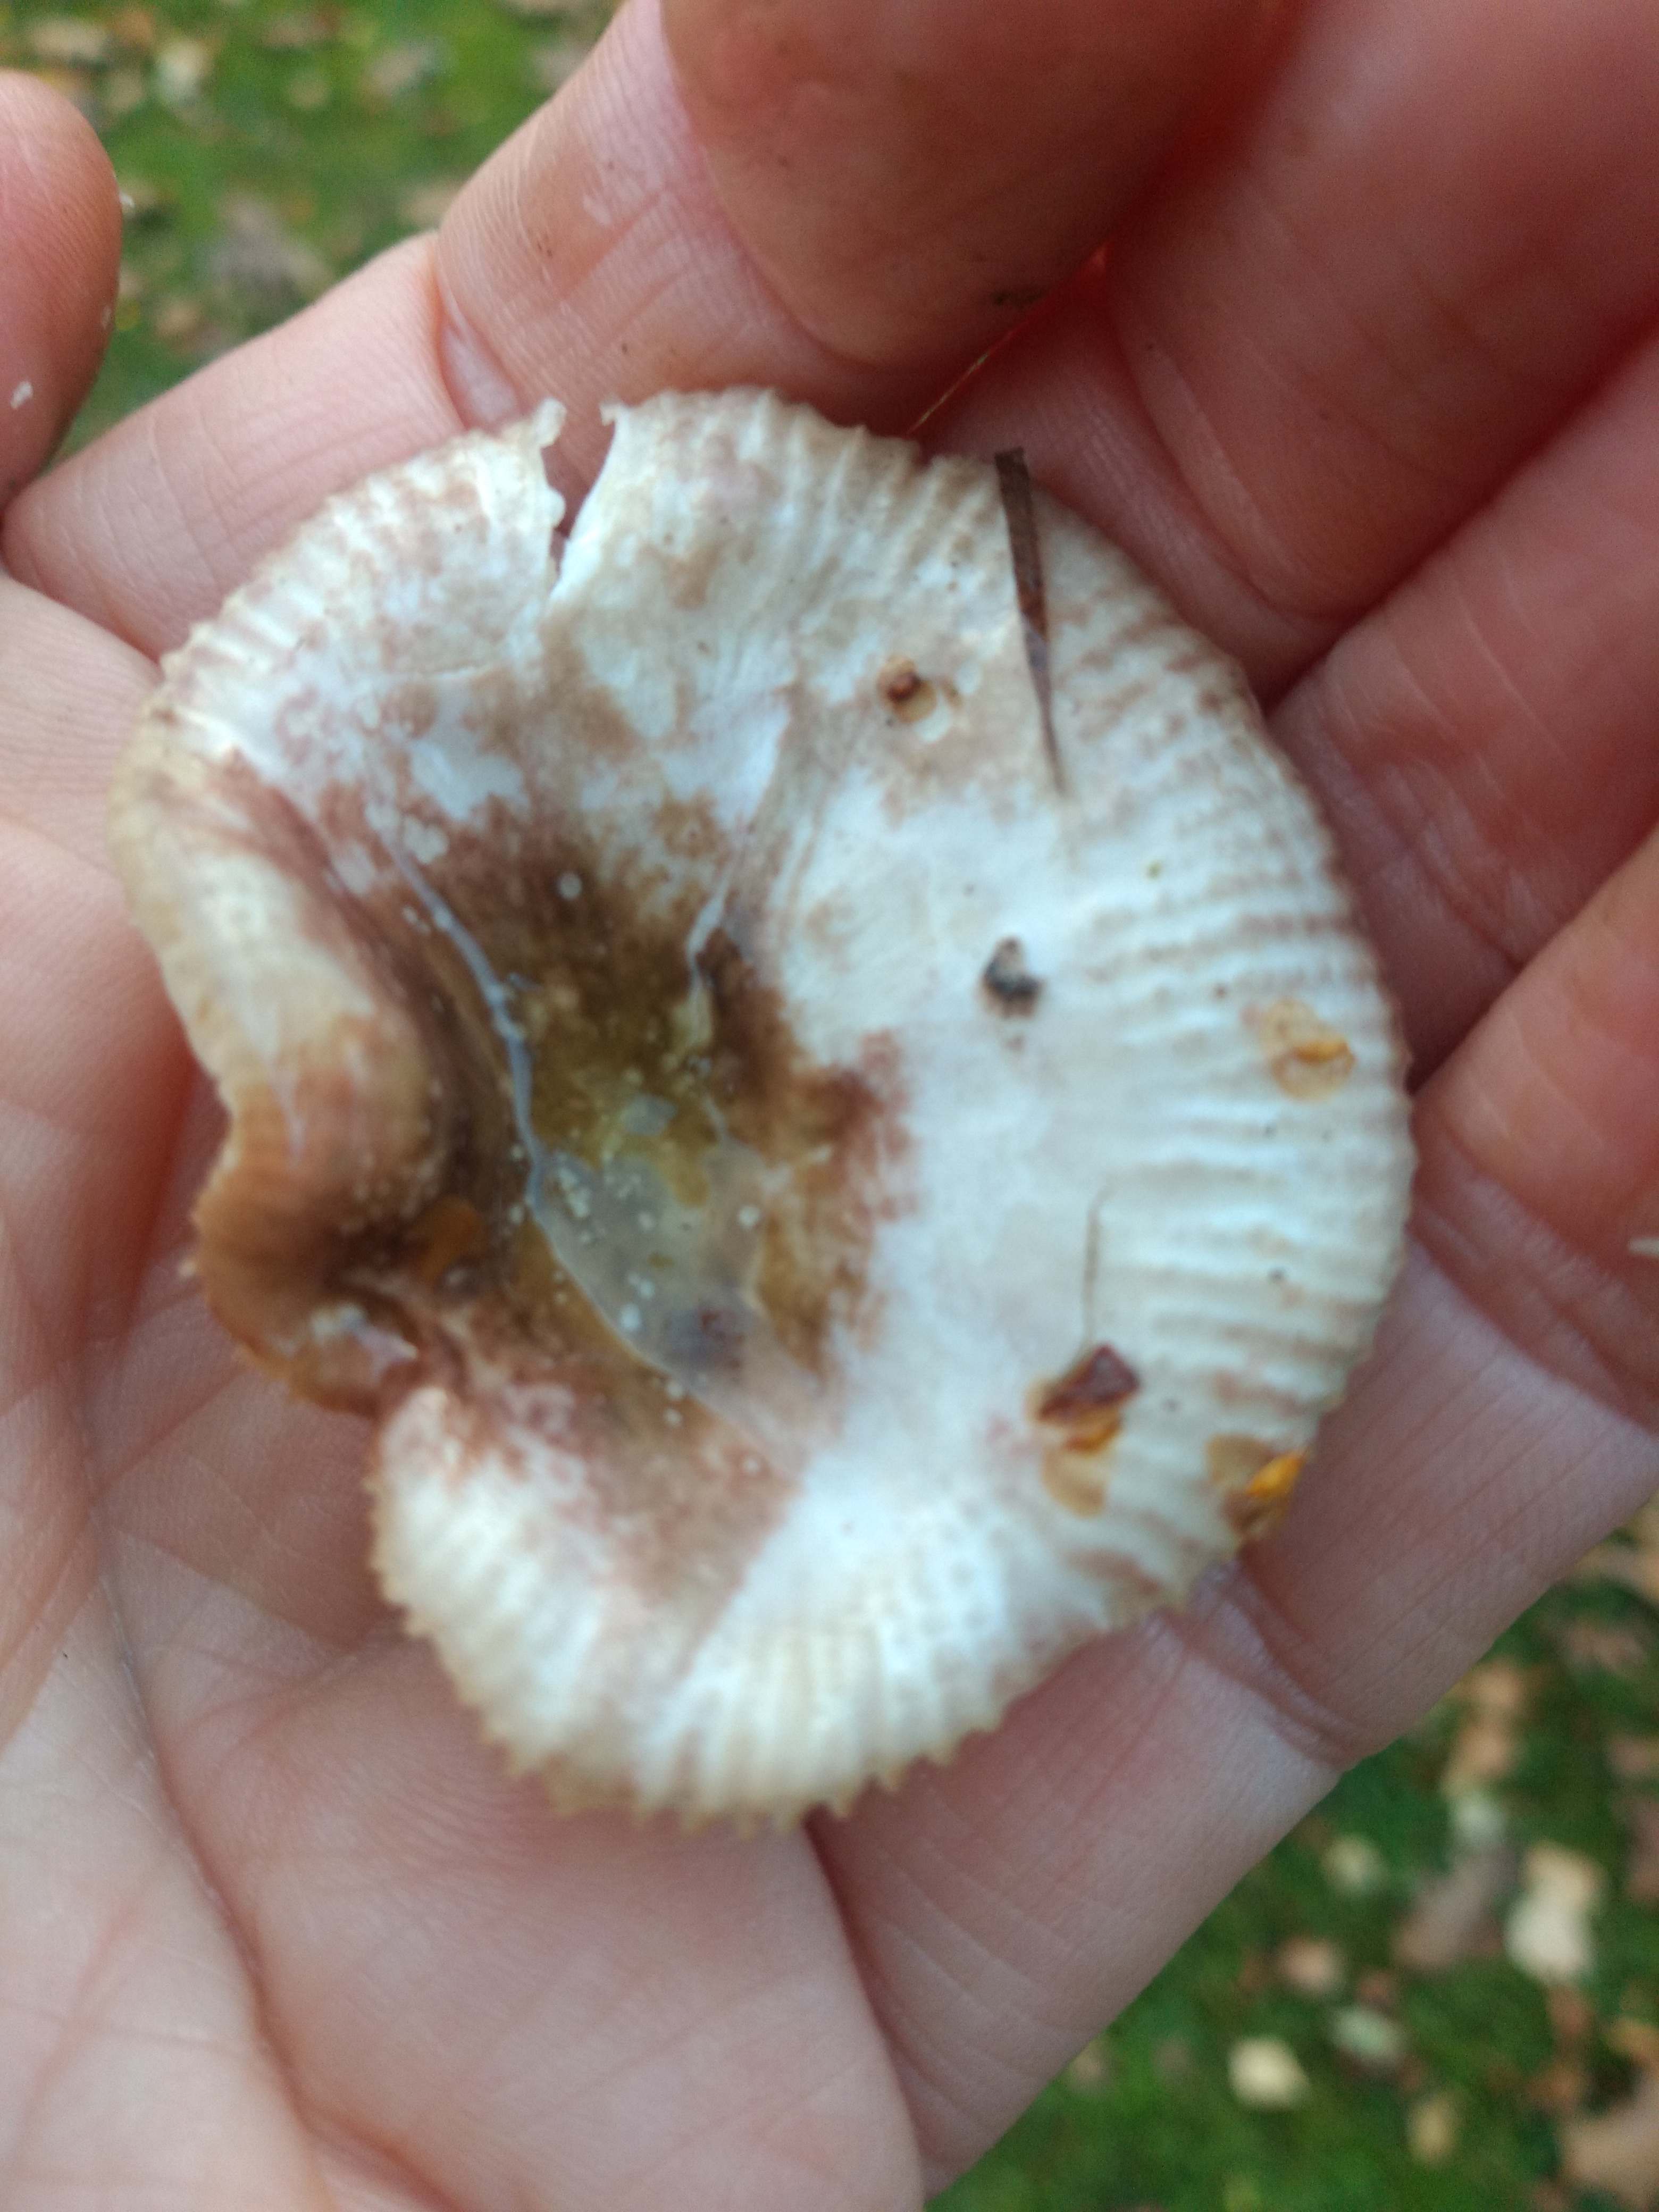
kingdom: Fungi
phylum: Basidiomycota
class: Agaricomycetes
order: Russulales
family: Russulaceae
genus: Russula
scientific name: Russula
